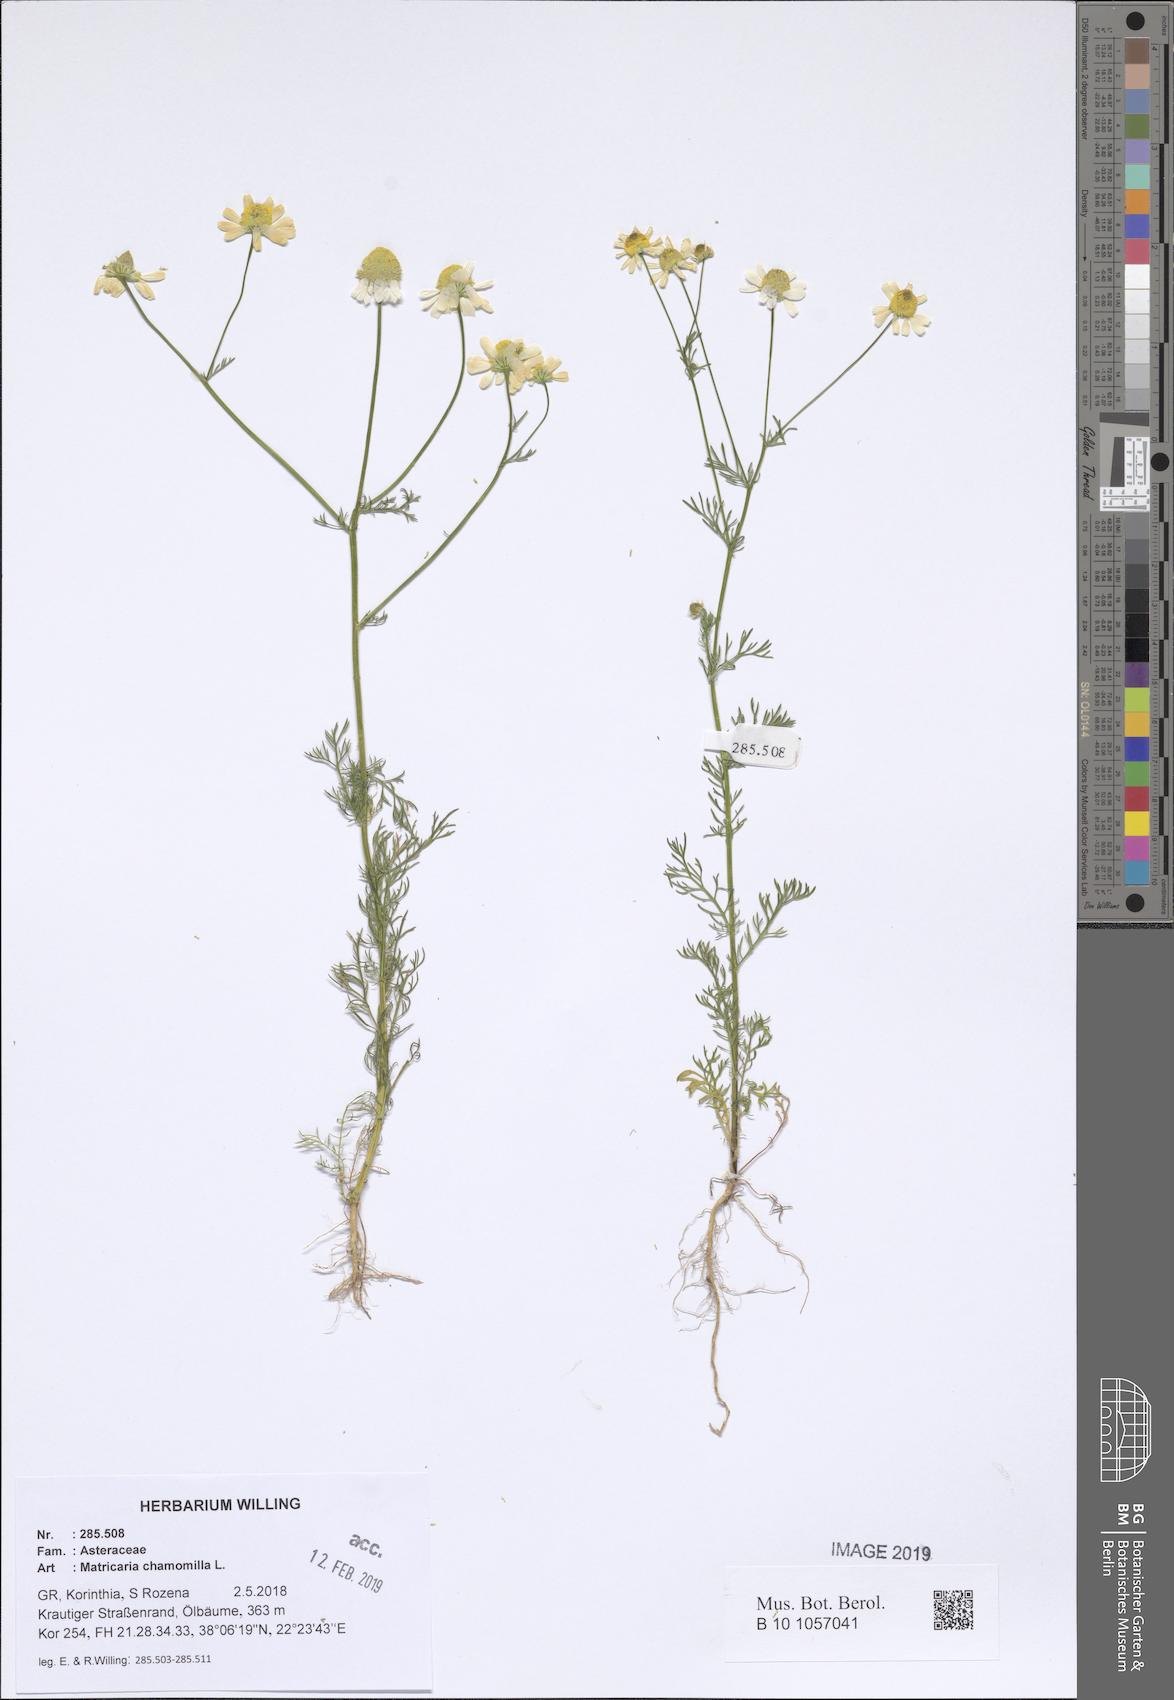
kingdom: Plantae
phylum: Tracheophyta
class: Magnoliopsida
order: Asterales
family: Asteraceae
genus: Matricaria
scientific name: Matricaria chamomilla
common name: Scented mayweed
